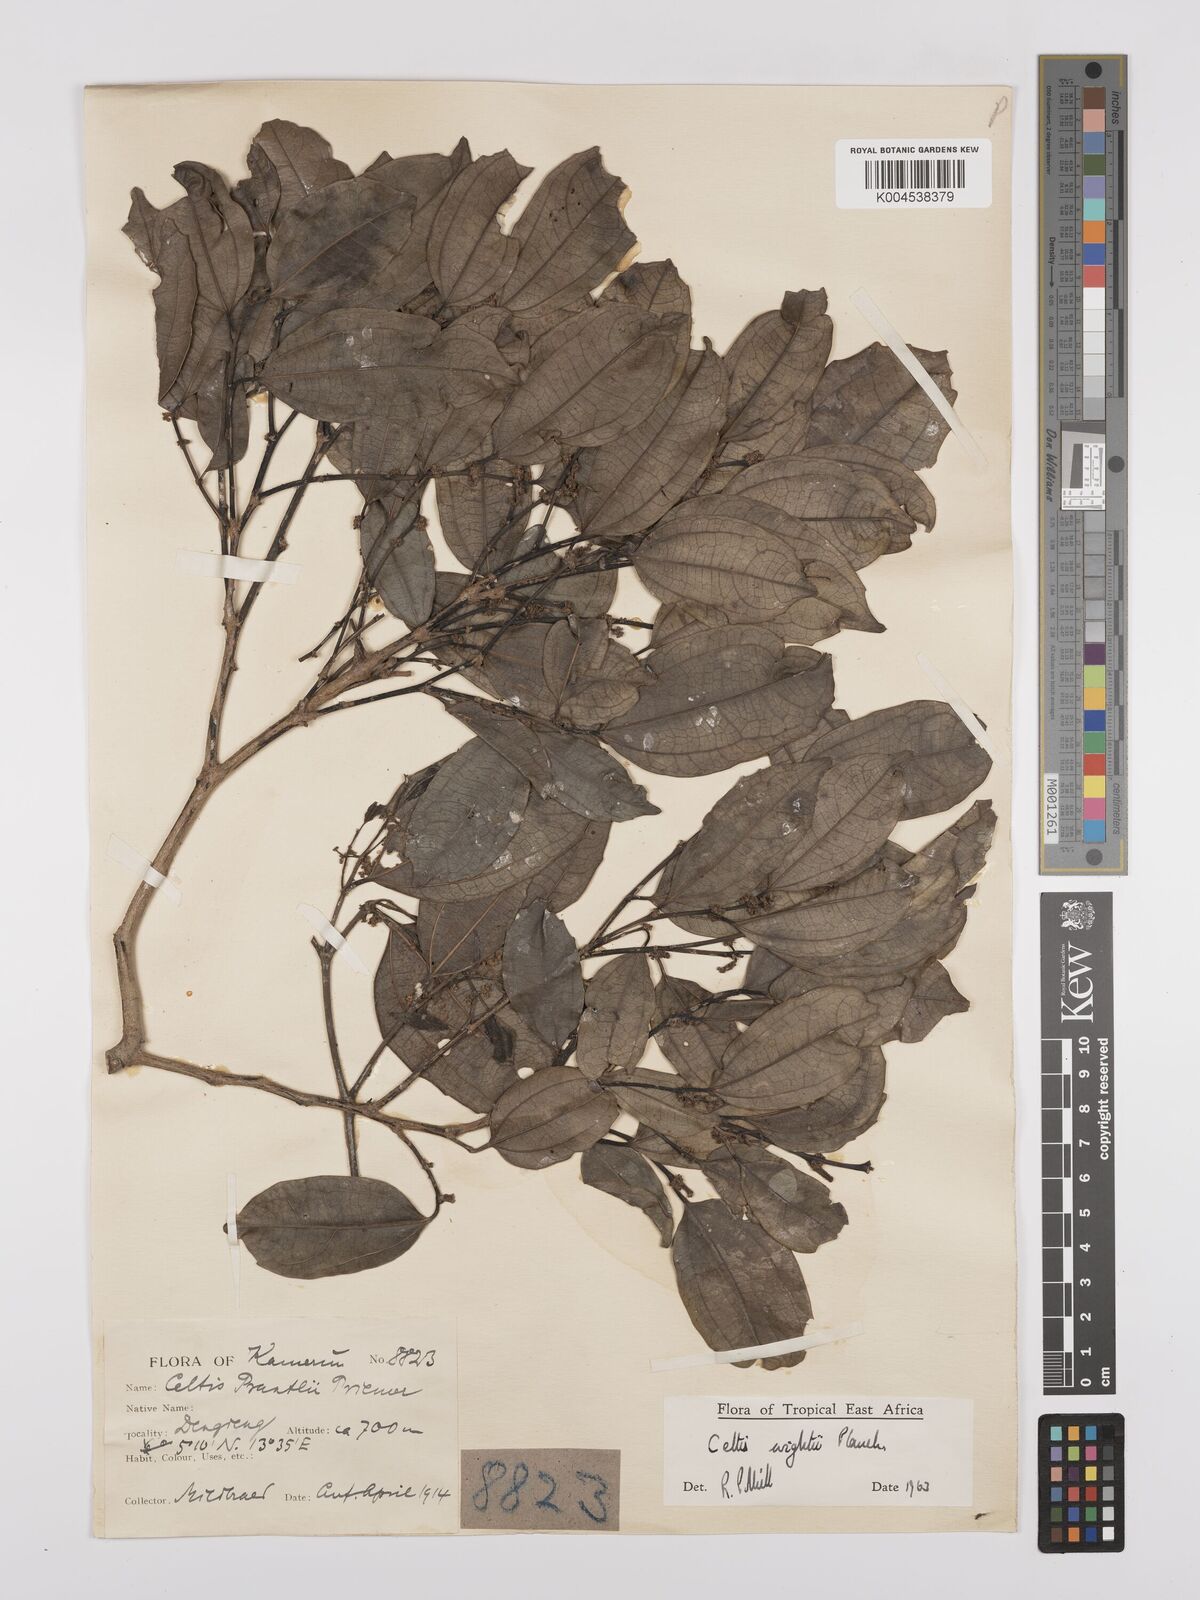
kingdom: Plantae
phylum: Tracheophyta
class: Magnoliopsida
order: Rosales
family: Cannabaceae
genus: Celtis
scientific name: Celtis philippensis
